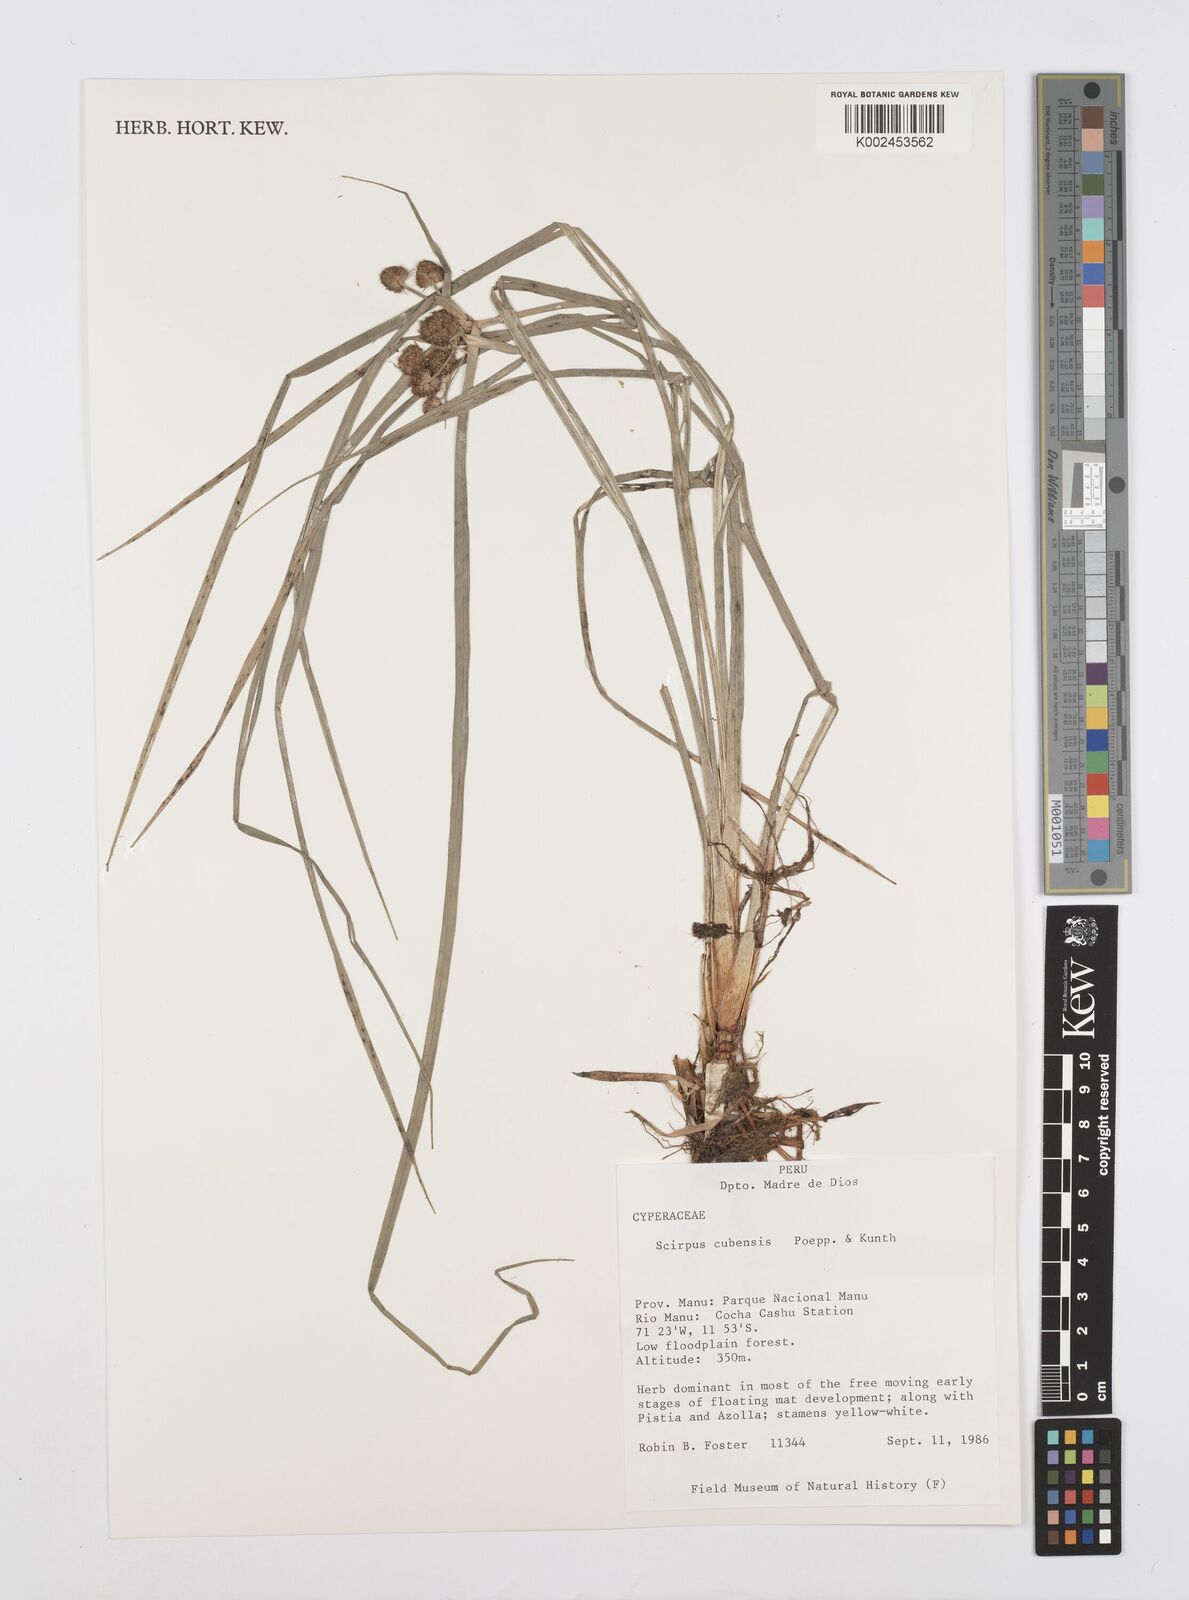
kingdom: Plantae
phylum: Tracheophyta
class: Liliopsida
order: Poales
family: Cyperaceae
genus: Cyperus
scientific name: Cyperus elegans
